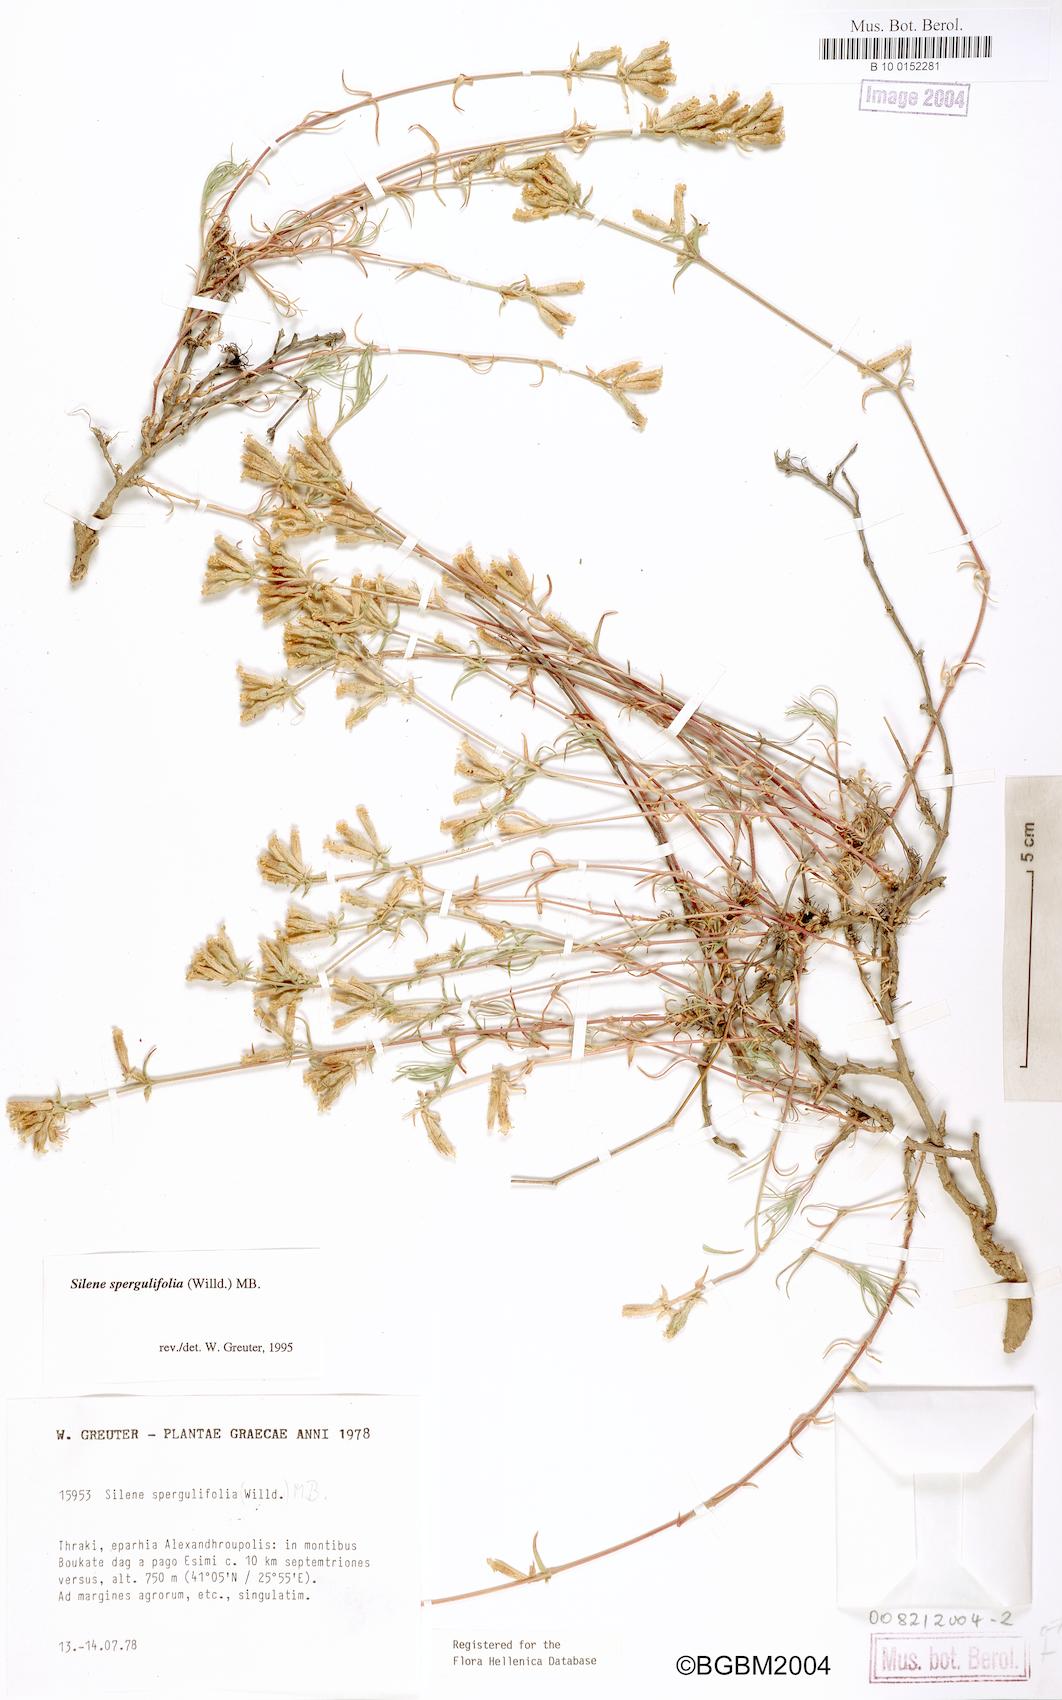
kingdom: Plantae
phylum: Tracheophyta
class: Magnoliopsida
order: Caryophyllales
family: Caryophyllaceae
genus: Silene
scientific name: Silene spergulifolia
